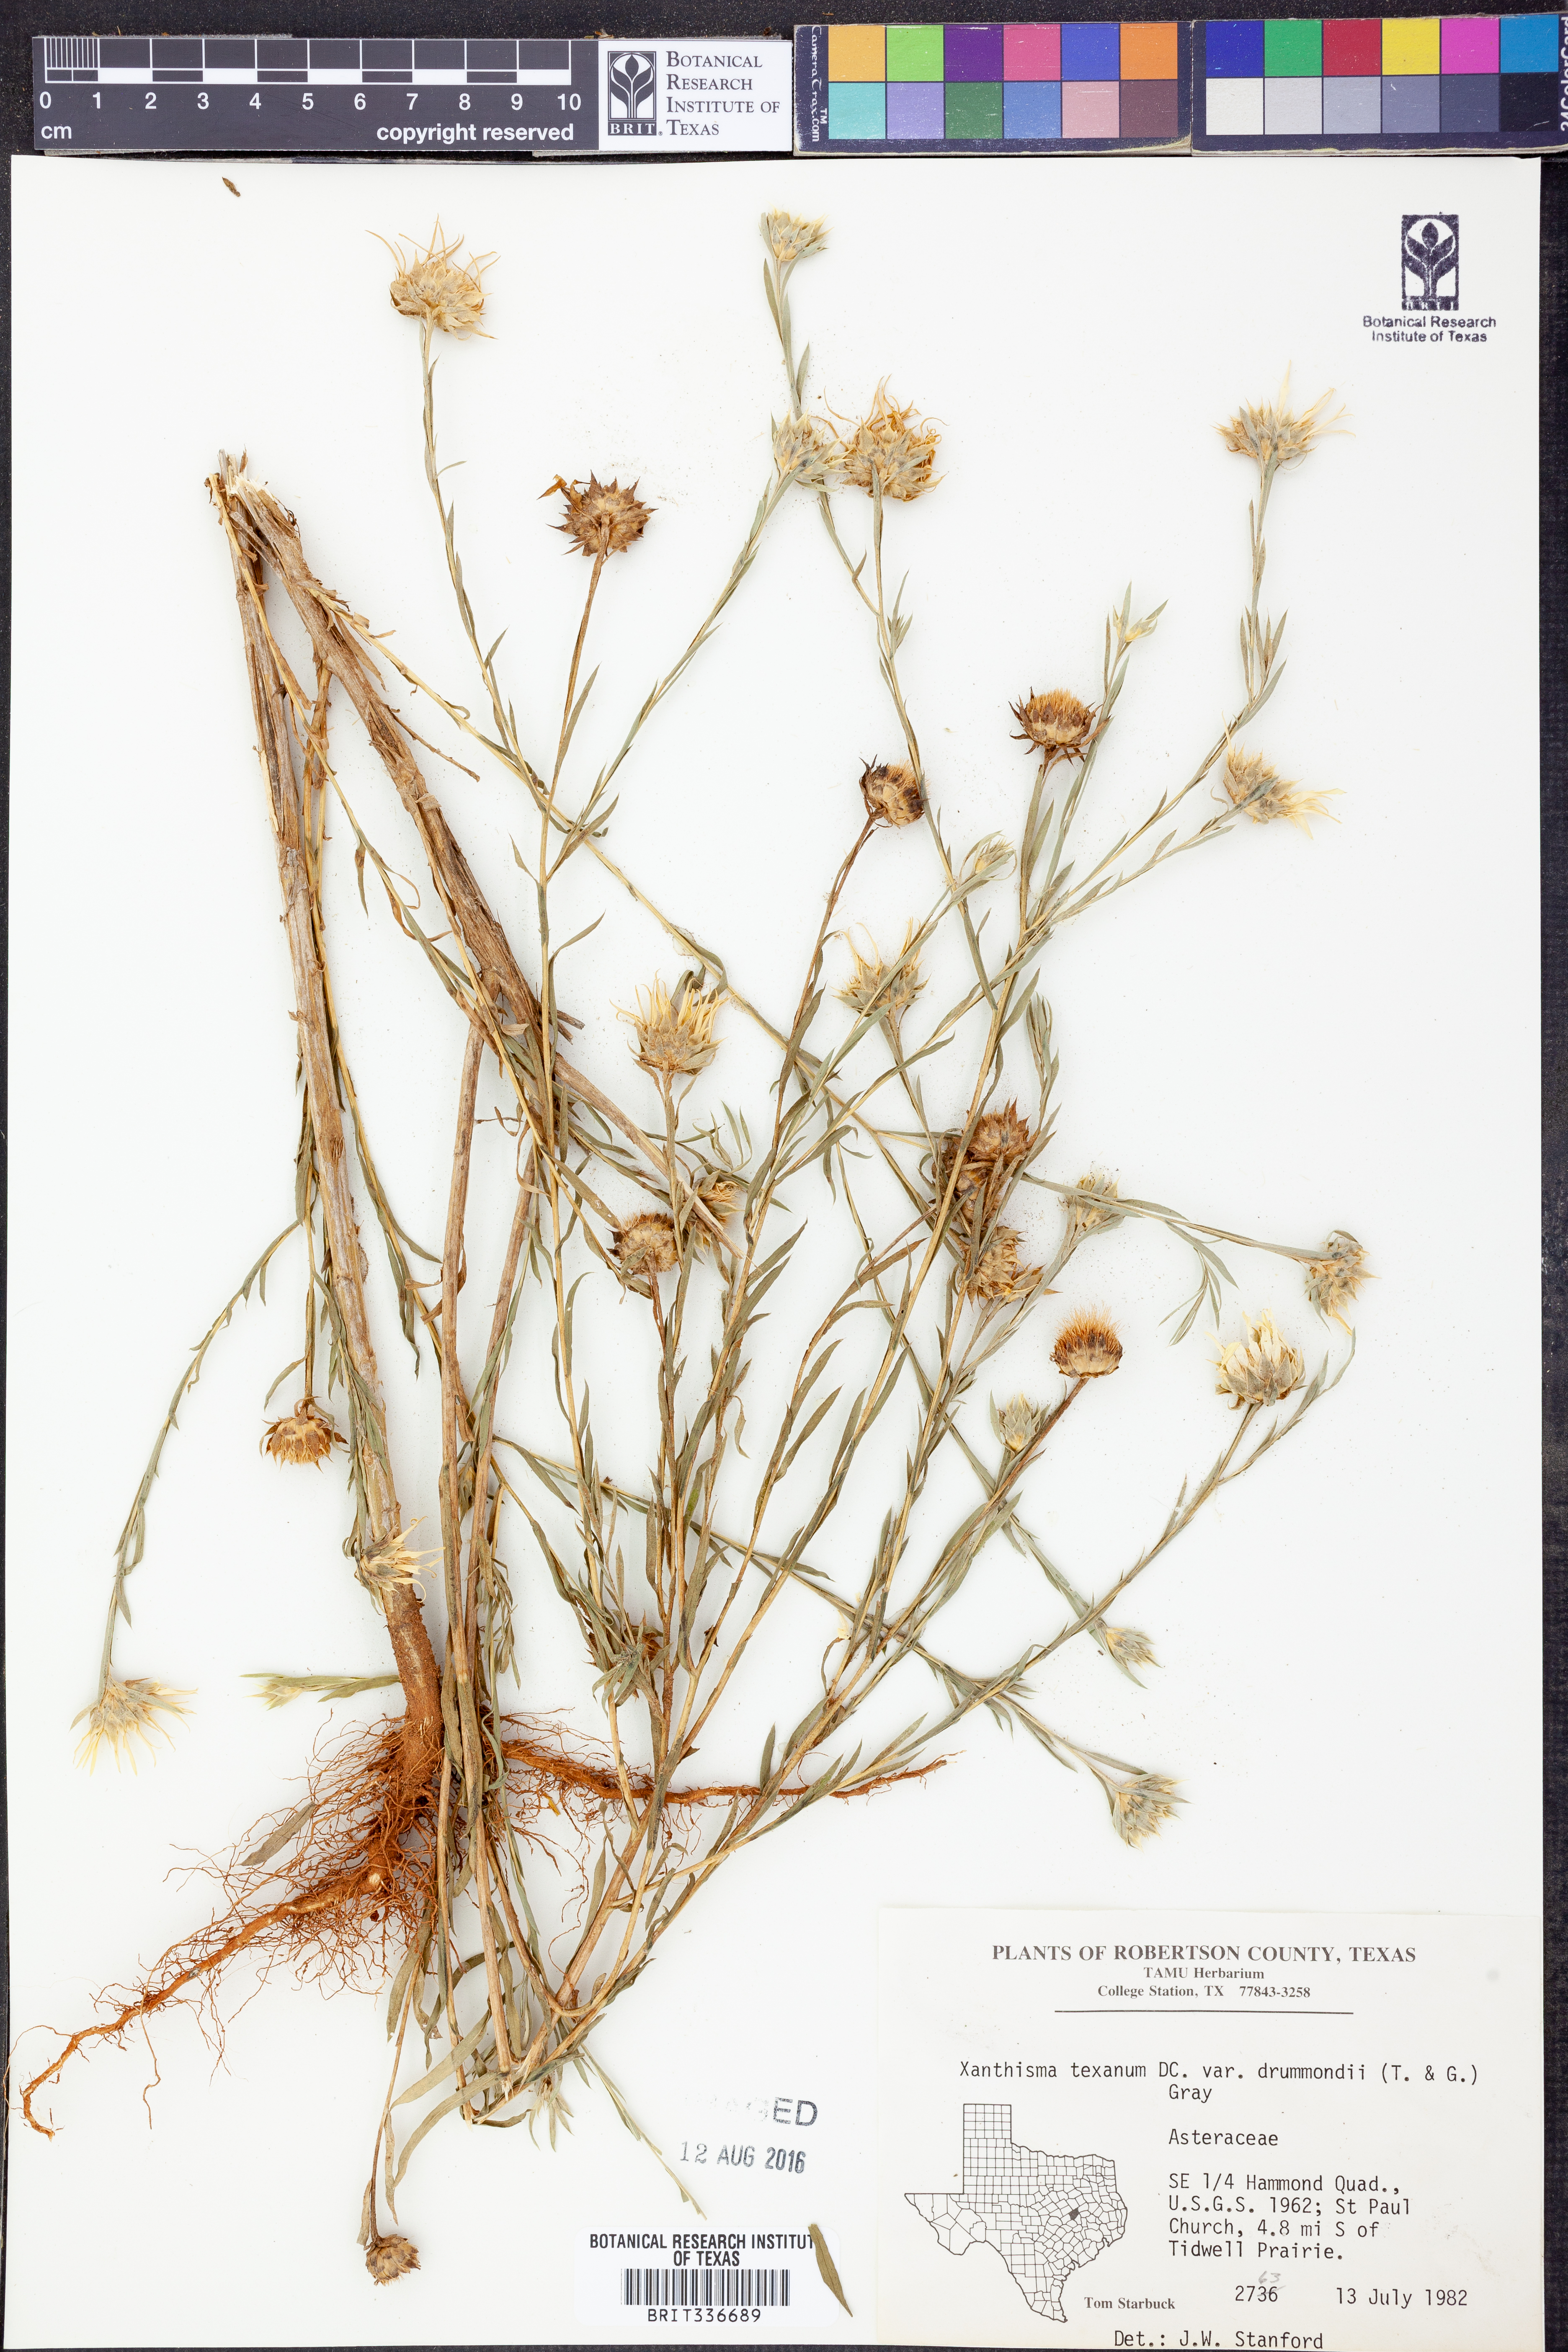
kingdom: Plantae
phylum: Tracheophyta
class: Magnoliopsida
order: Asterales
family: Asteraceae
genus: Xanthisma
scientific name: Xanthisma texanum
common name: Texas sleepy daisy
